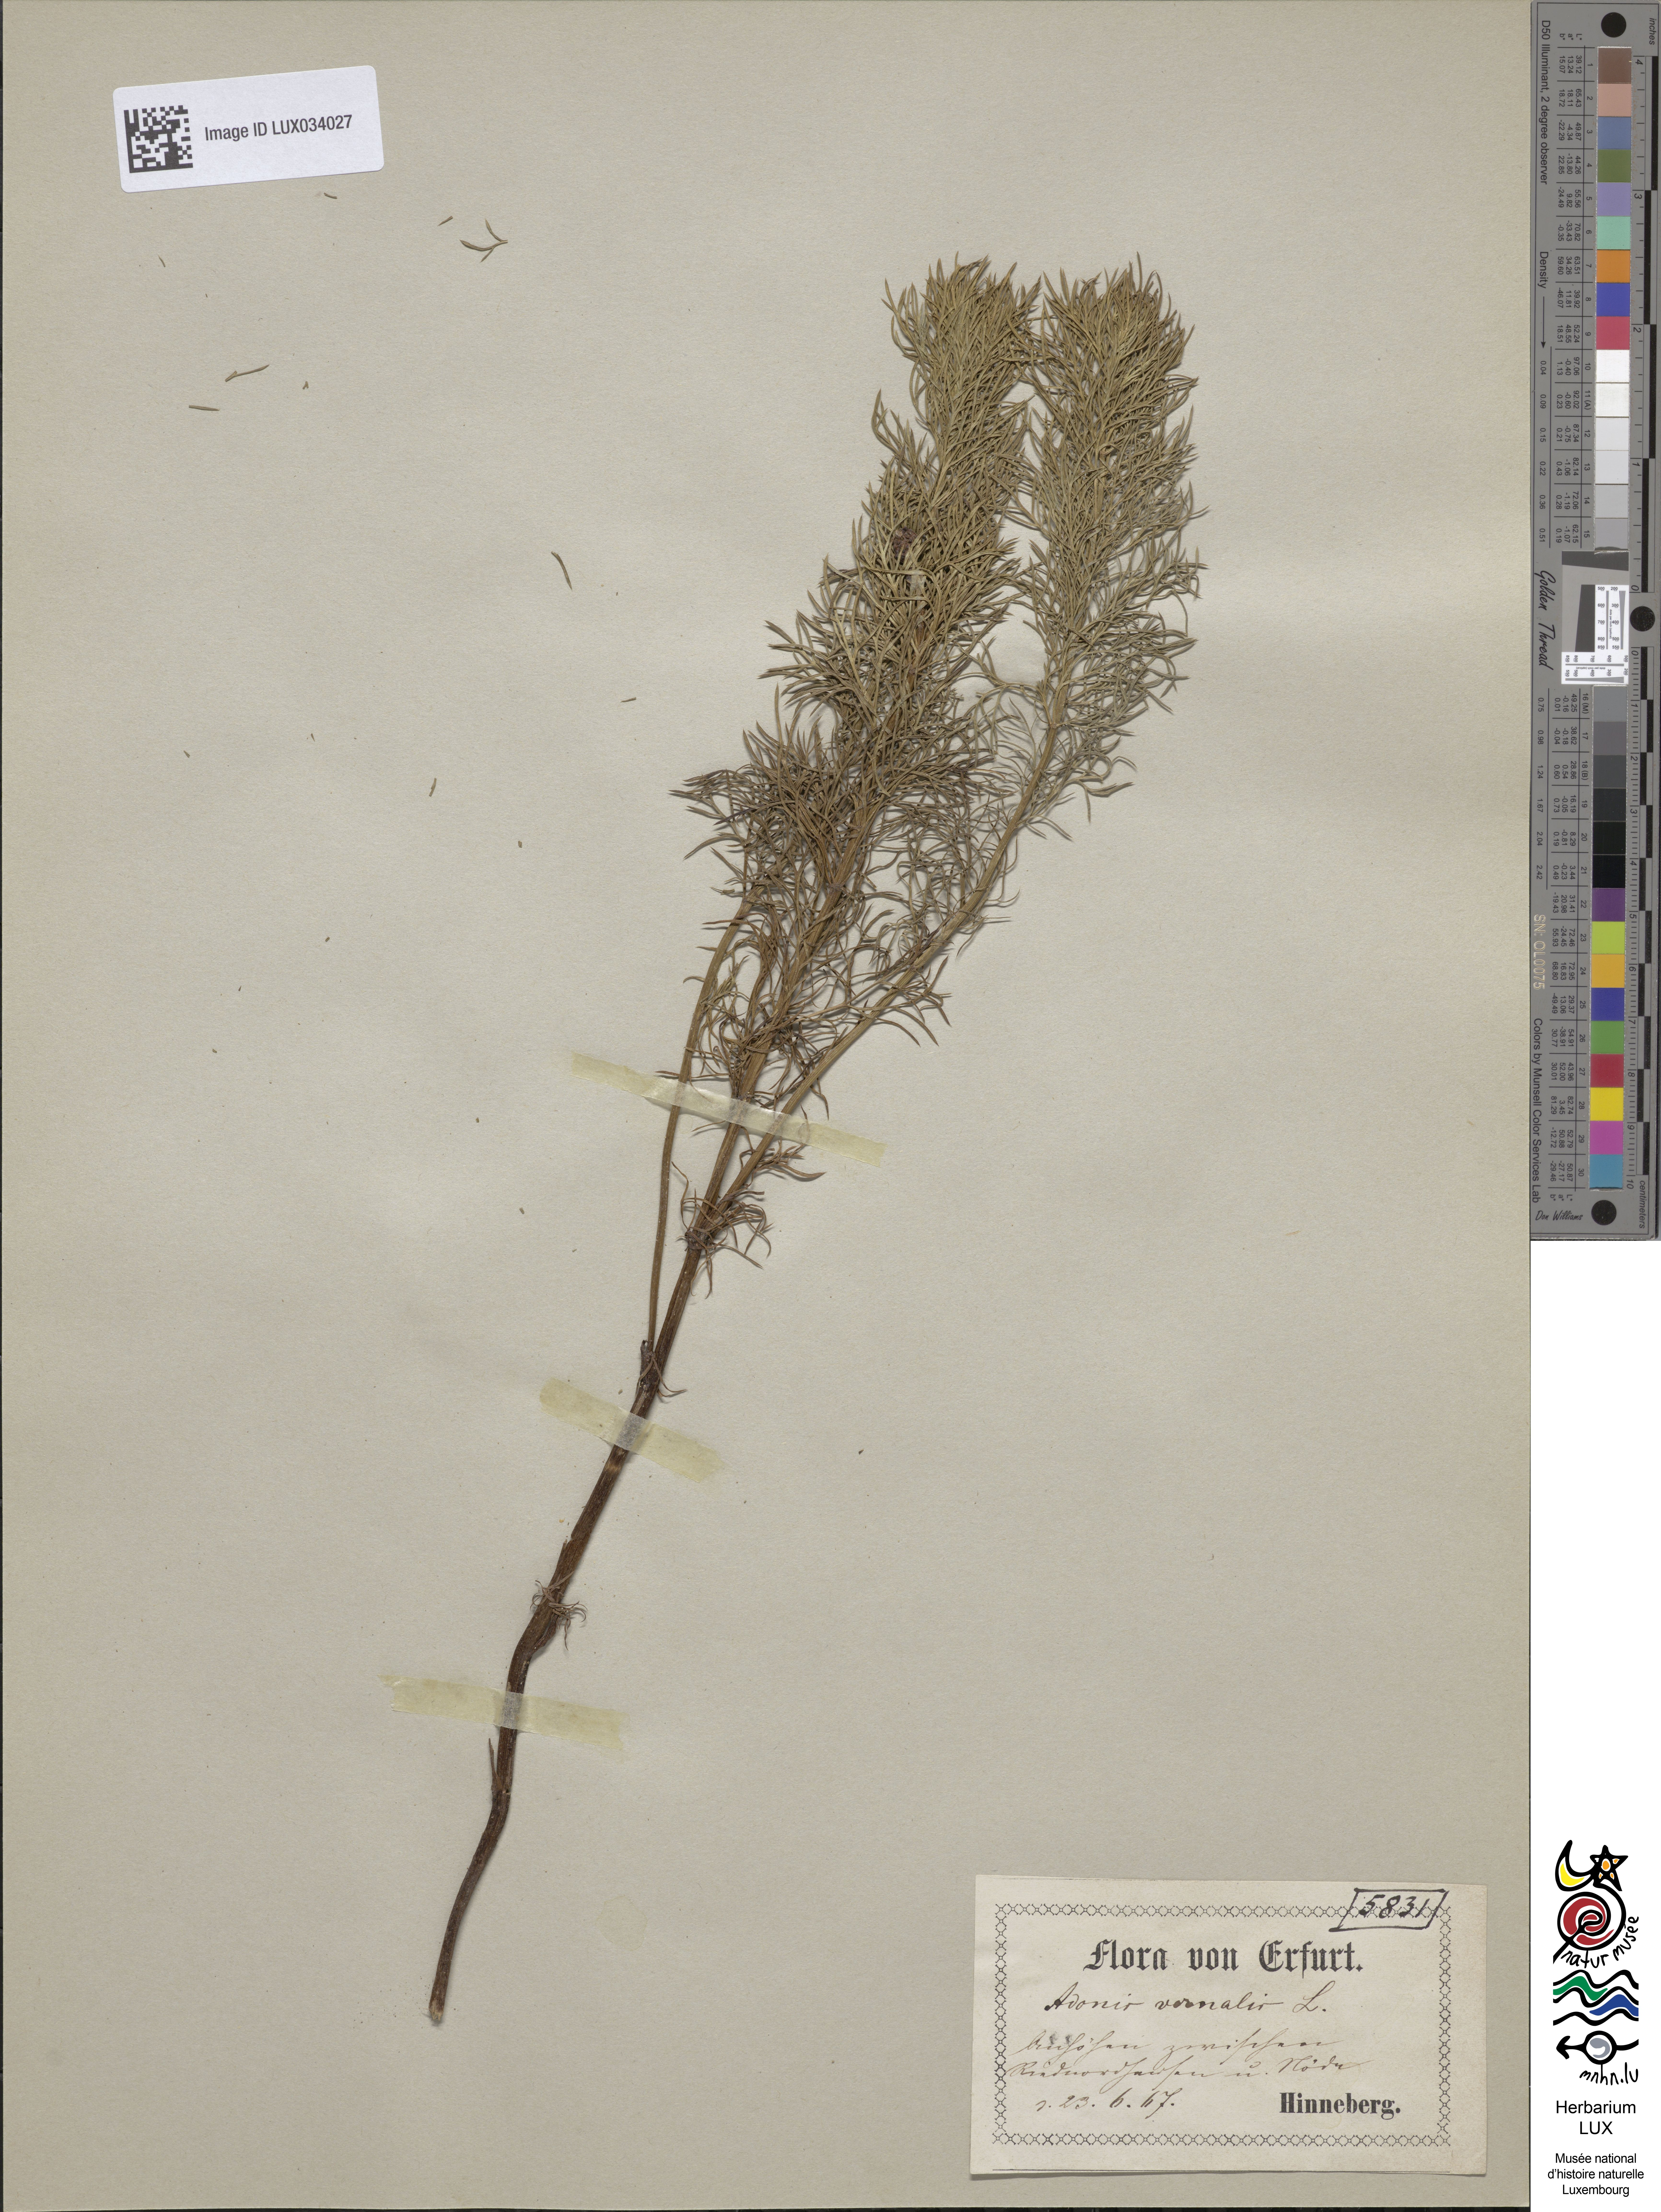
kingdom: Plantae
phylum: Tracheophyta
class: Magnoliopsida
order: Ranunculales
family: Ranunculaceae
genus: Adonis
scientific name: Adonis vernalis
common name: Yellow pheasants-eye
